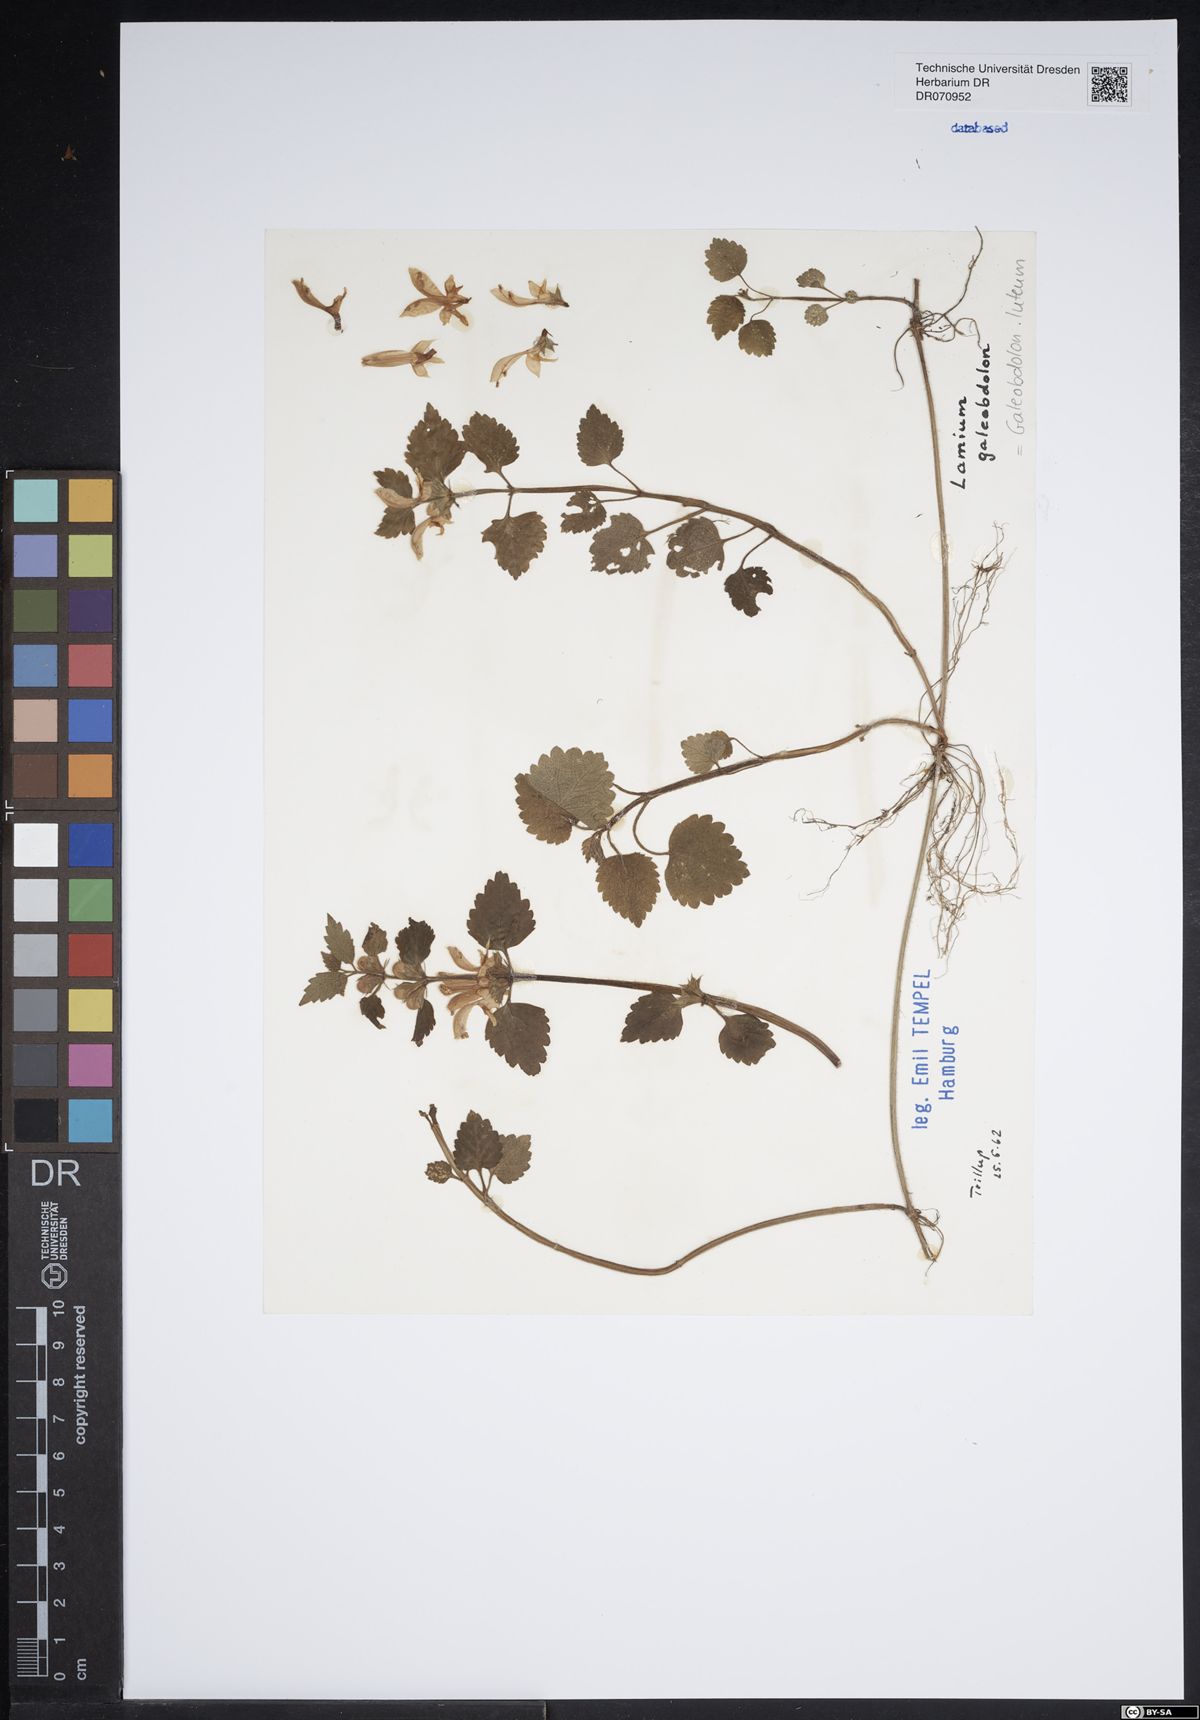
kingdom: Plantae
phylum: Tracheophyta
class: Magnoliopsida
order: Lamiales
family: Lamiaceae
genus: Lamium
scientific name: Lamium galeobdolon
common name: Yellow archangel
